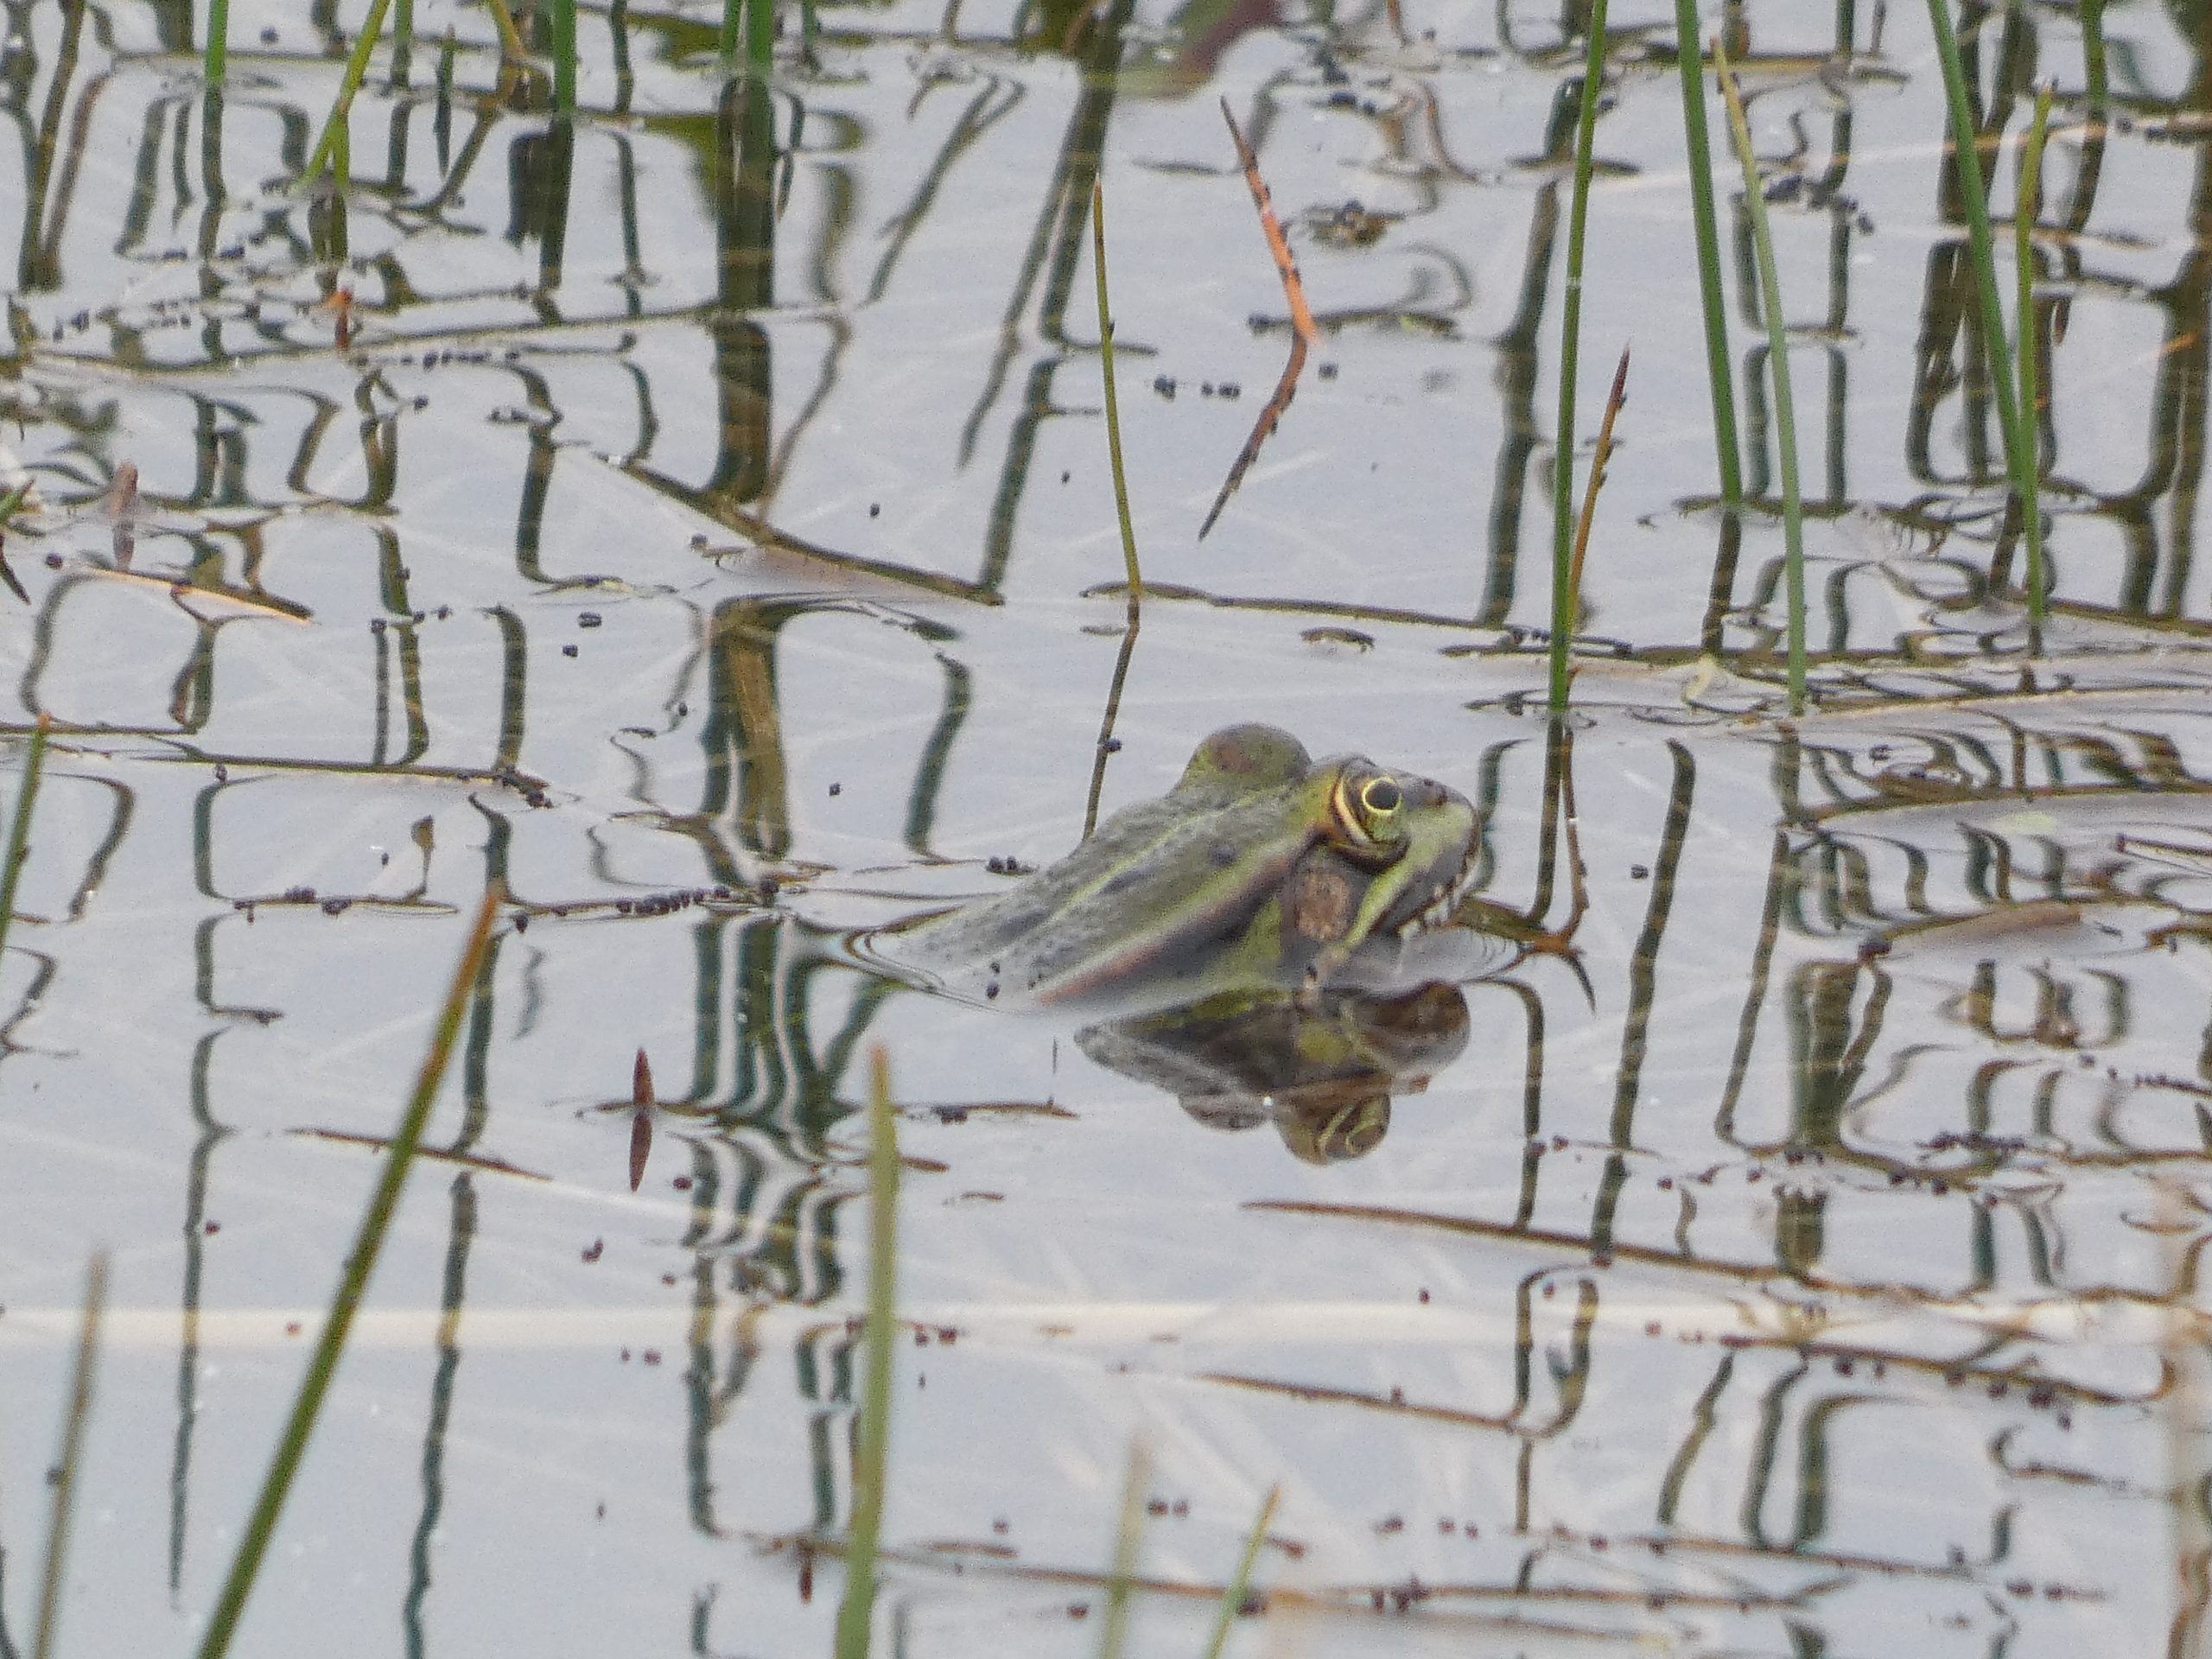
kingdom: Animalia
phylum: Chordata
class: Amphibia
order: Anura
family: Ranidae
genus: Pelophylax
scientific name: Pelophylax lessonae
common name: Grøn frø
